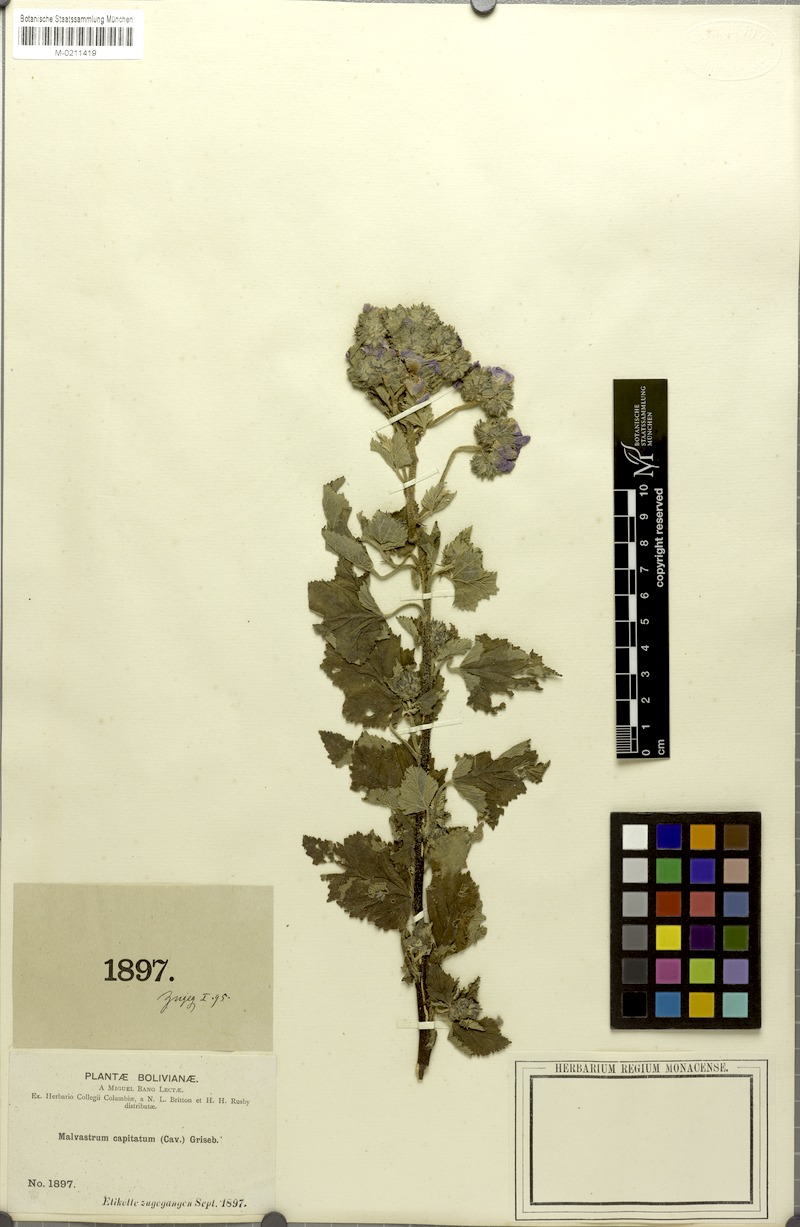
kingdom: Plantae
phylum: Tracheophyta
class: Magnoliopsida
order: Malvales
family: Malvaceae
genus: Tarasa
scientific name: Tarasa capitata
